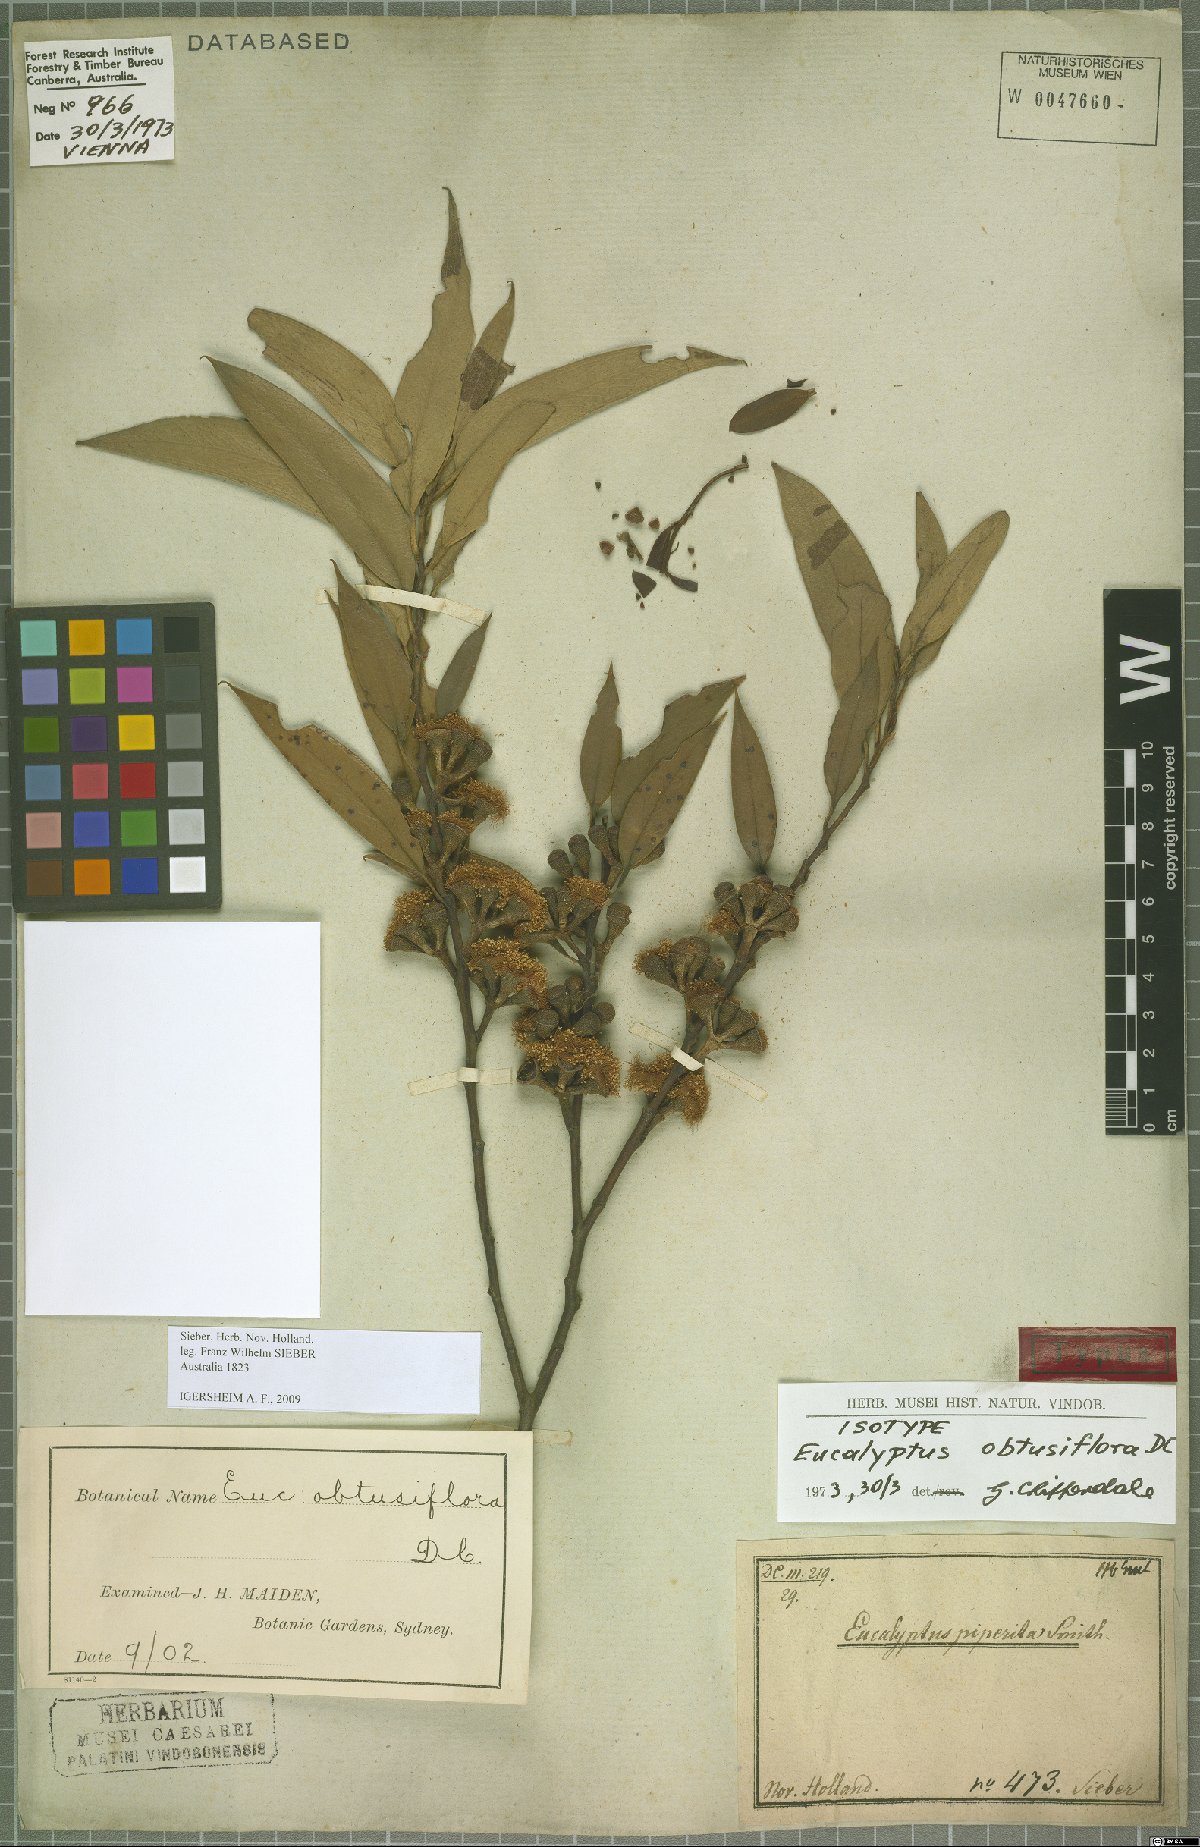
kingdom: Plantae
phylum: Tracheophyta
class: Magnoliopsida
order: Myrtales
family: Myrtaceae
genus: Eucalyptus
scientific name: Eucalyptus obtusiflora
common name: Dongara-mallee
